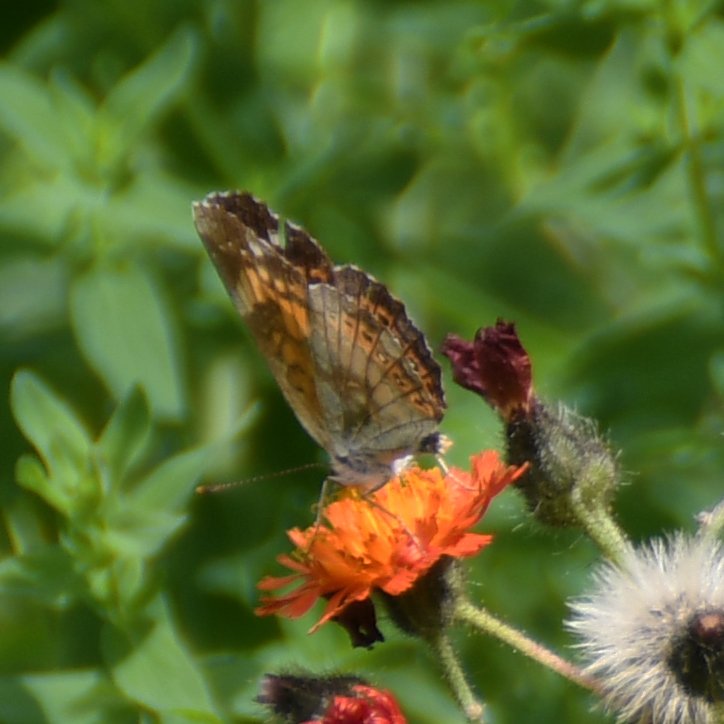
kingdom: Animalia
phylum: Arthropoda
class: Insecta
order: Lepidoptera
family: Nymphalidae
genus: Chlosyne
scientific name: Chlosyne nycteis
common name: Silvery Checkerspot
